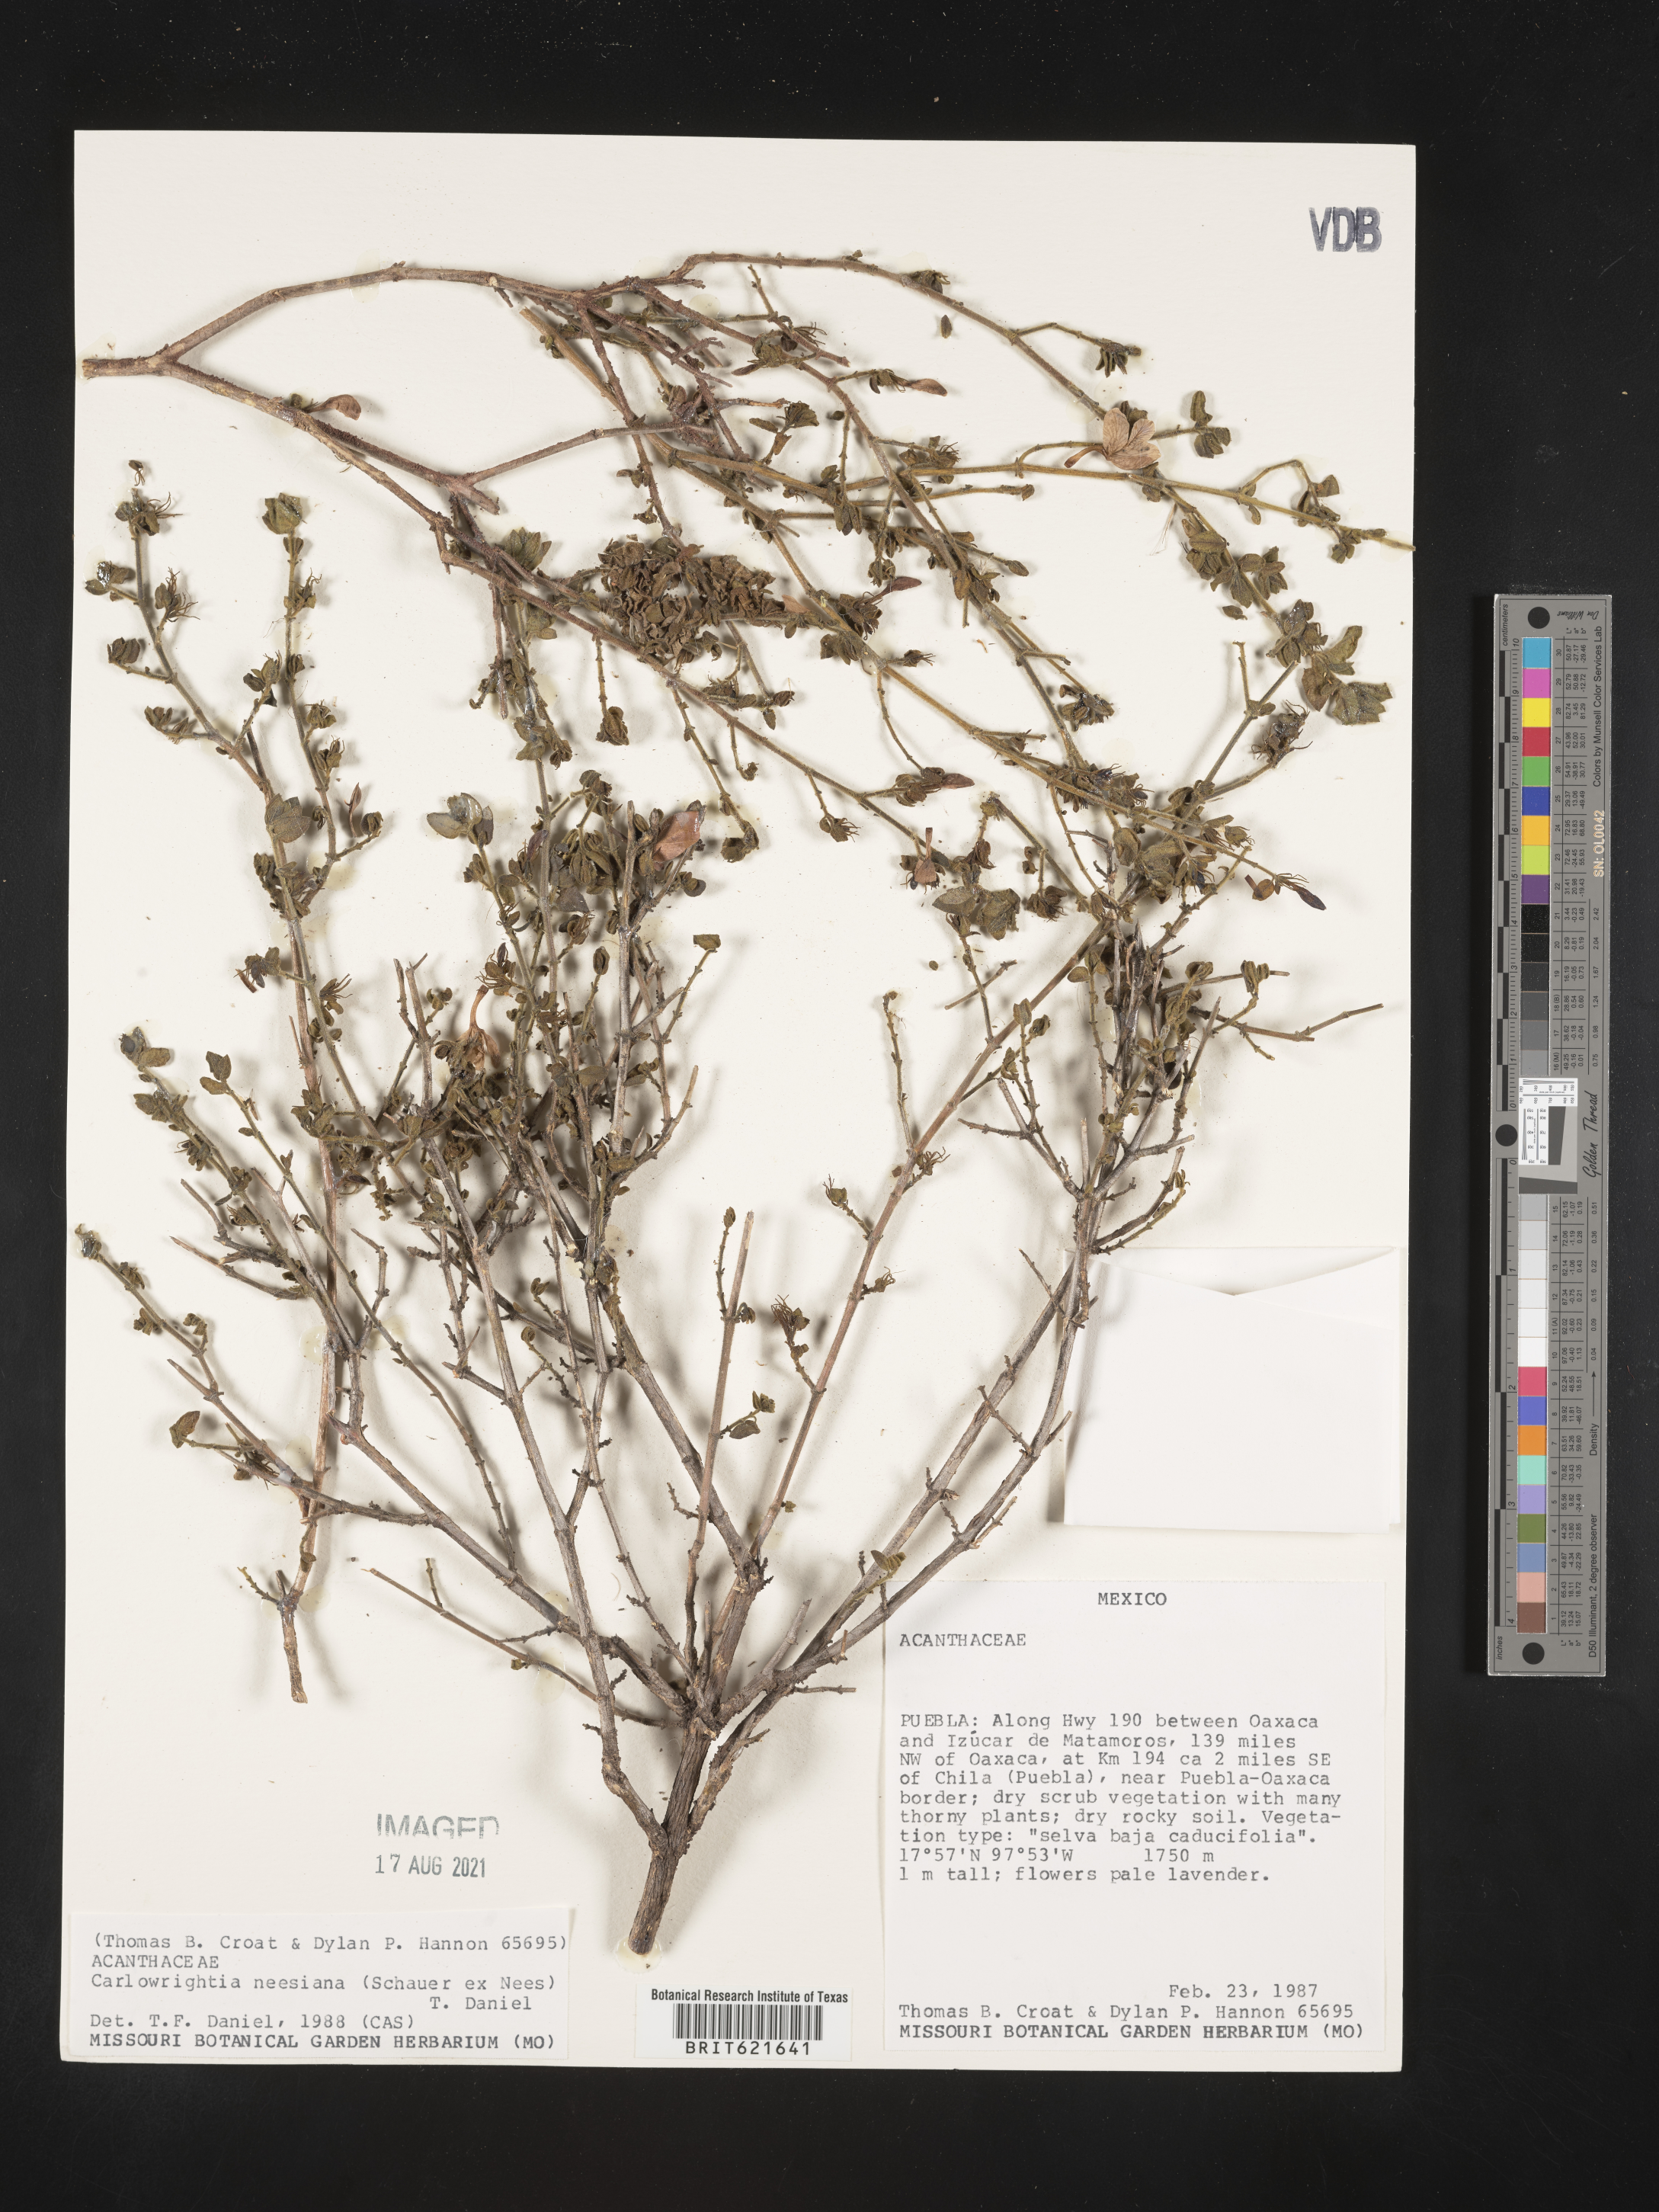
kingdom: Plantae
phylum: Tracheophyta
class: Magnoliopsida
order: Lamiales
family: Acanthaceae
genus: Carlowrightia
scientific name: Carlowrightia
